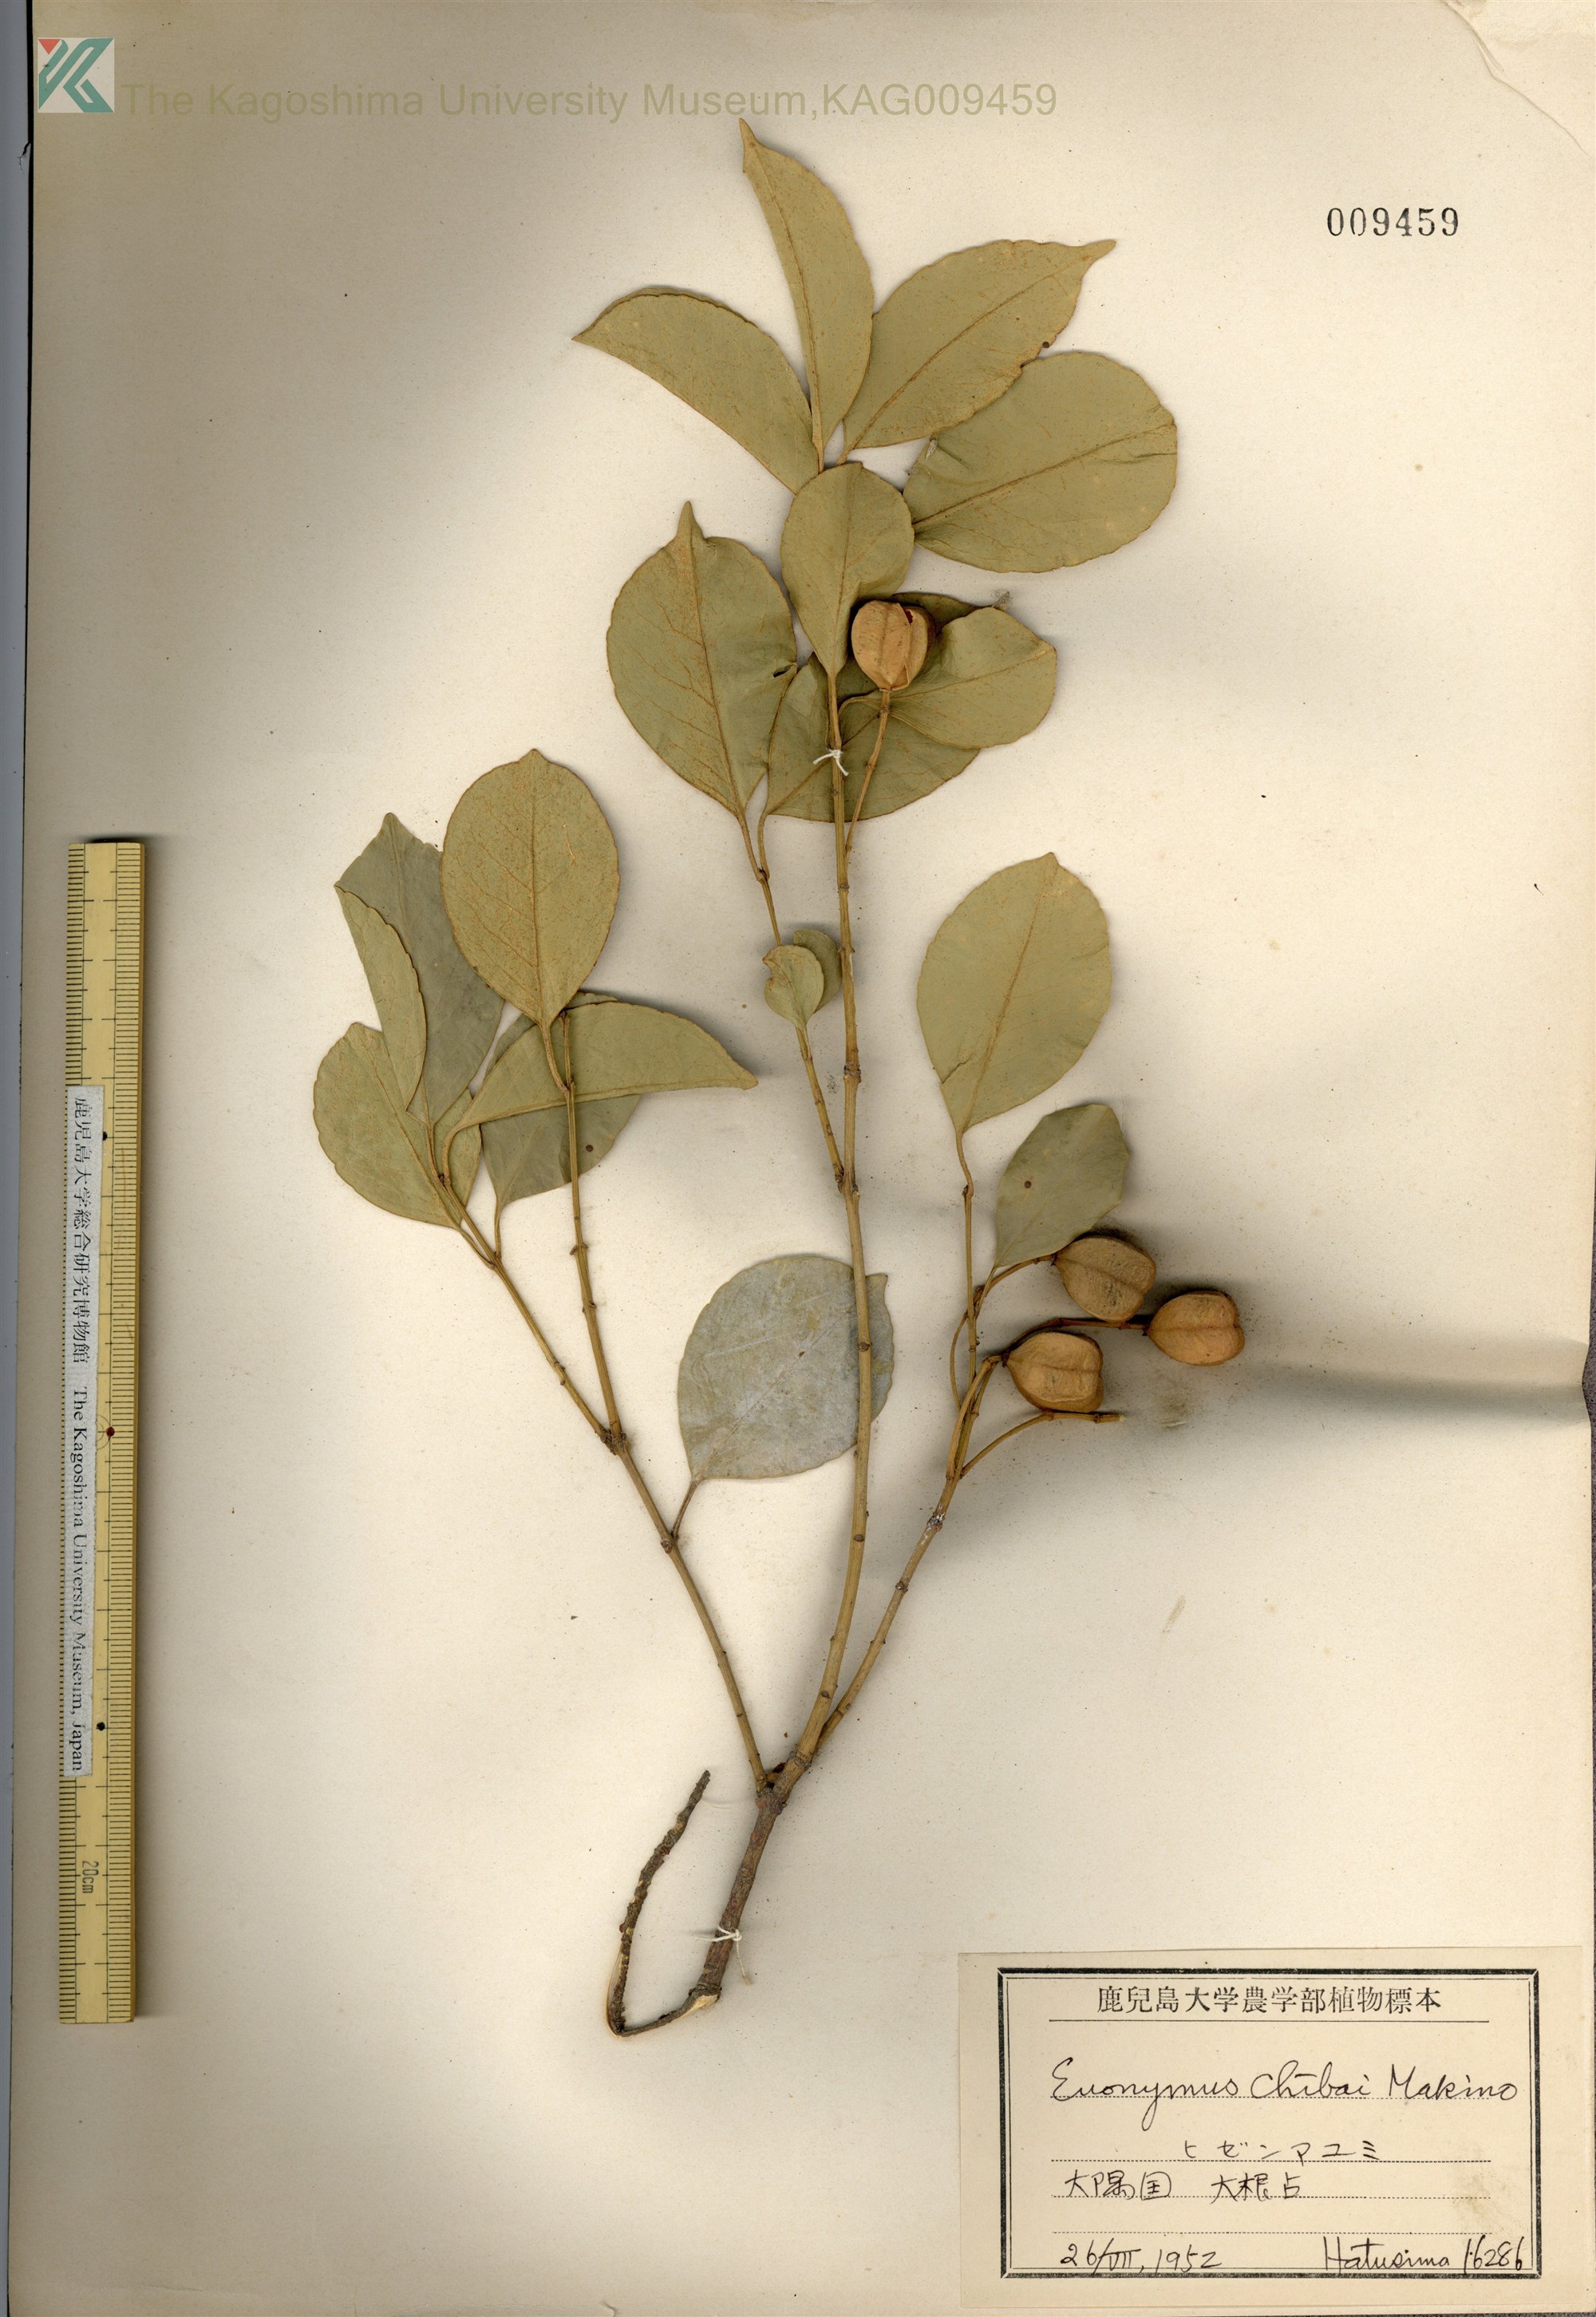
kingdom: Plantae
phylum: Tracheophyta
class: Magnoliopsida
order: Celastrales
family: Celastraceae
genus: Euonymus
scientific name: Euonymus chibae
